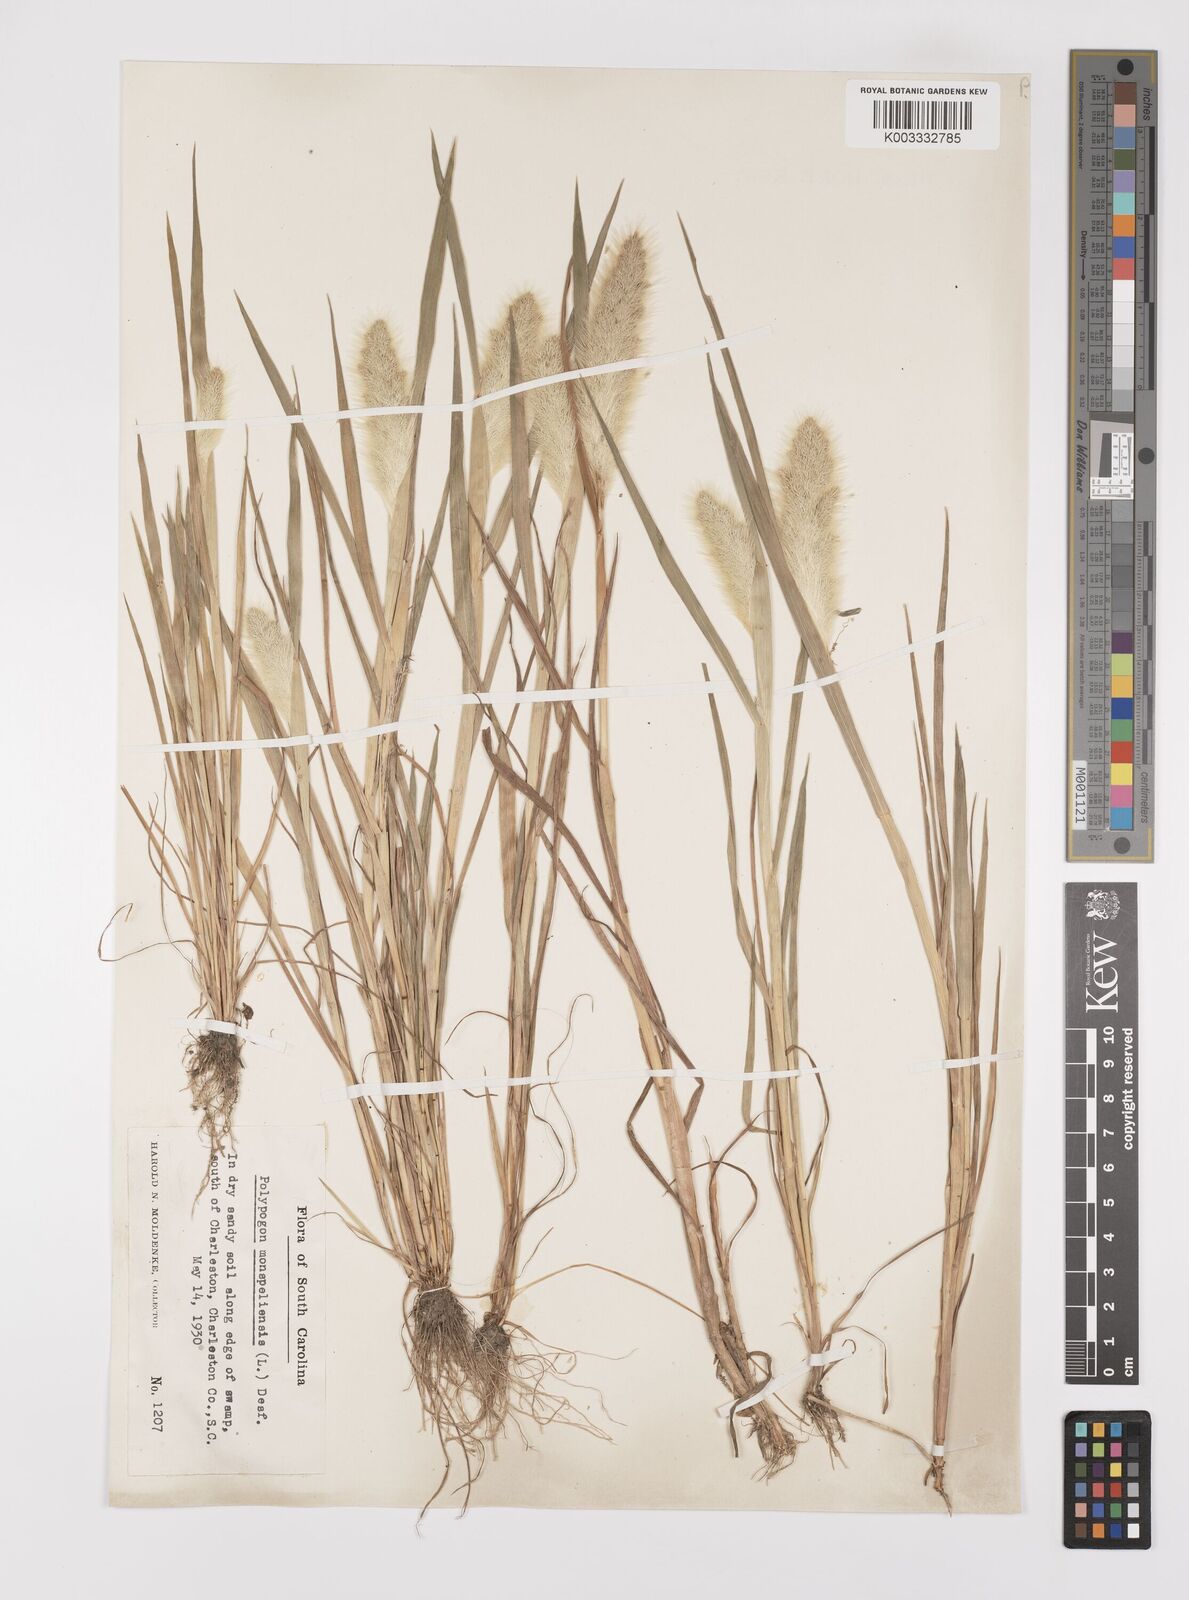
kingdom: Plantae
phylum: Tracheophyta
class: Liliopsida
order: Poales
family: Poaceae
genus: Polypogon
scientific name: Polypogon monspeliensis
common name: Annual rabbitsfoot grass
